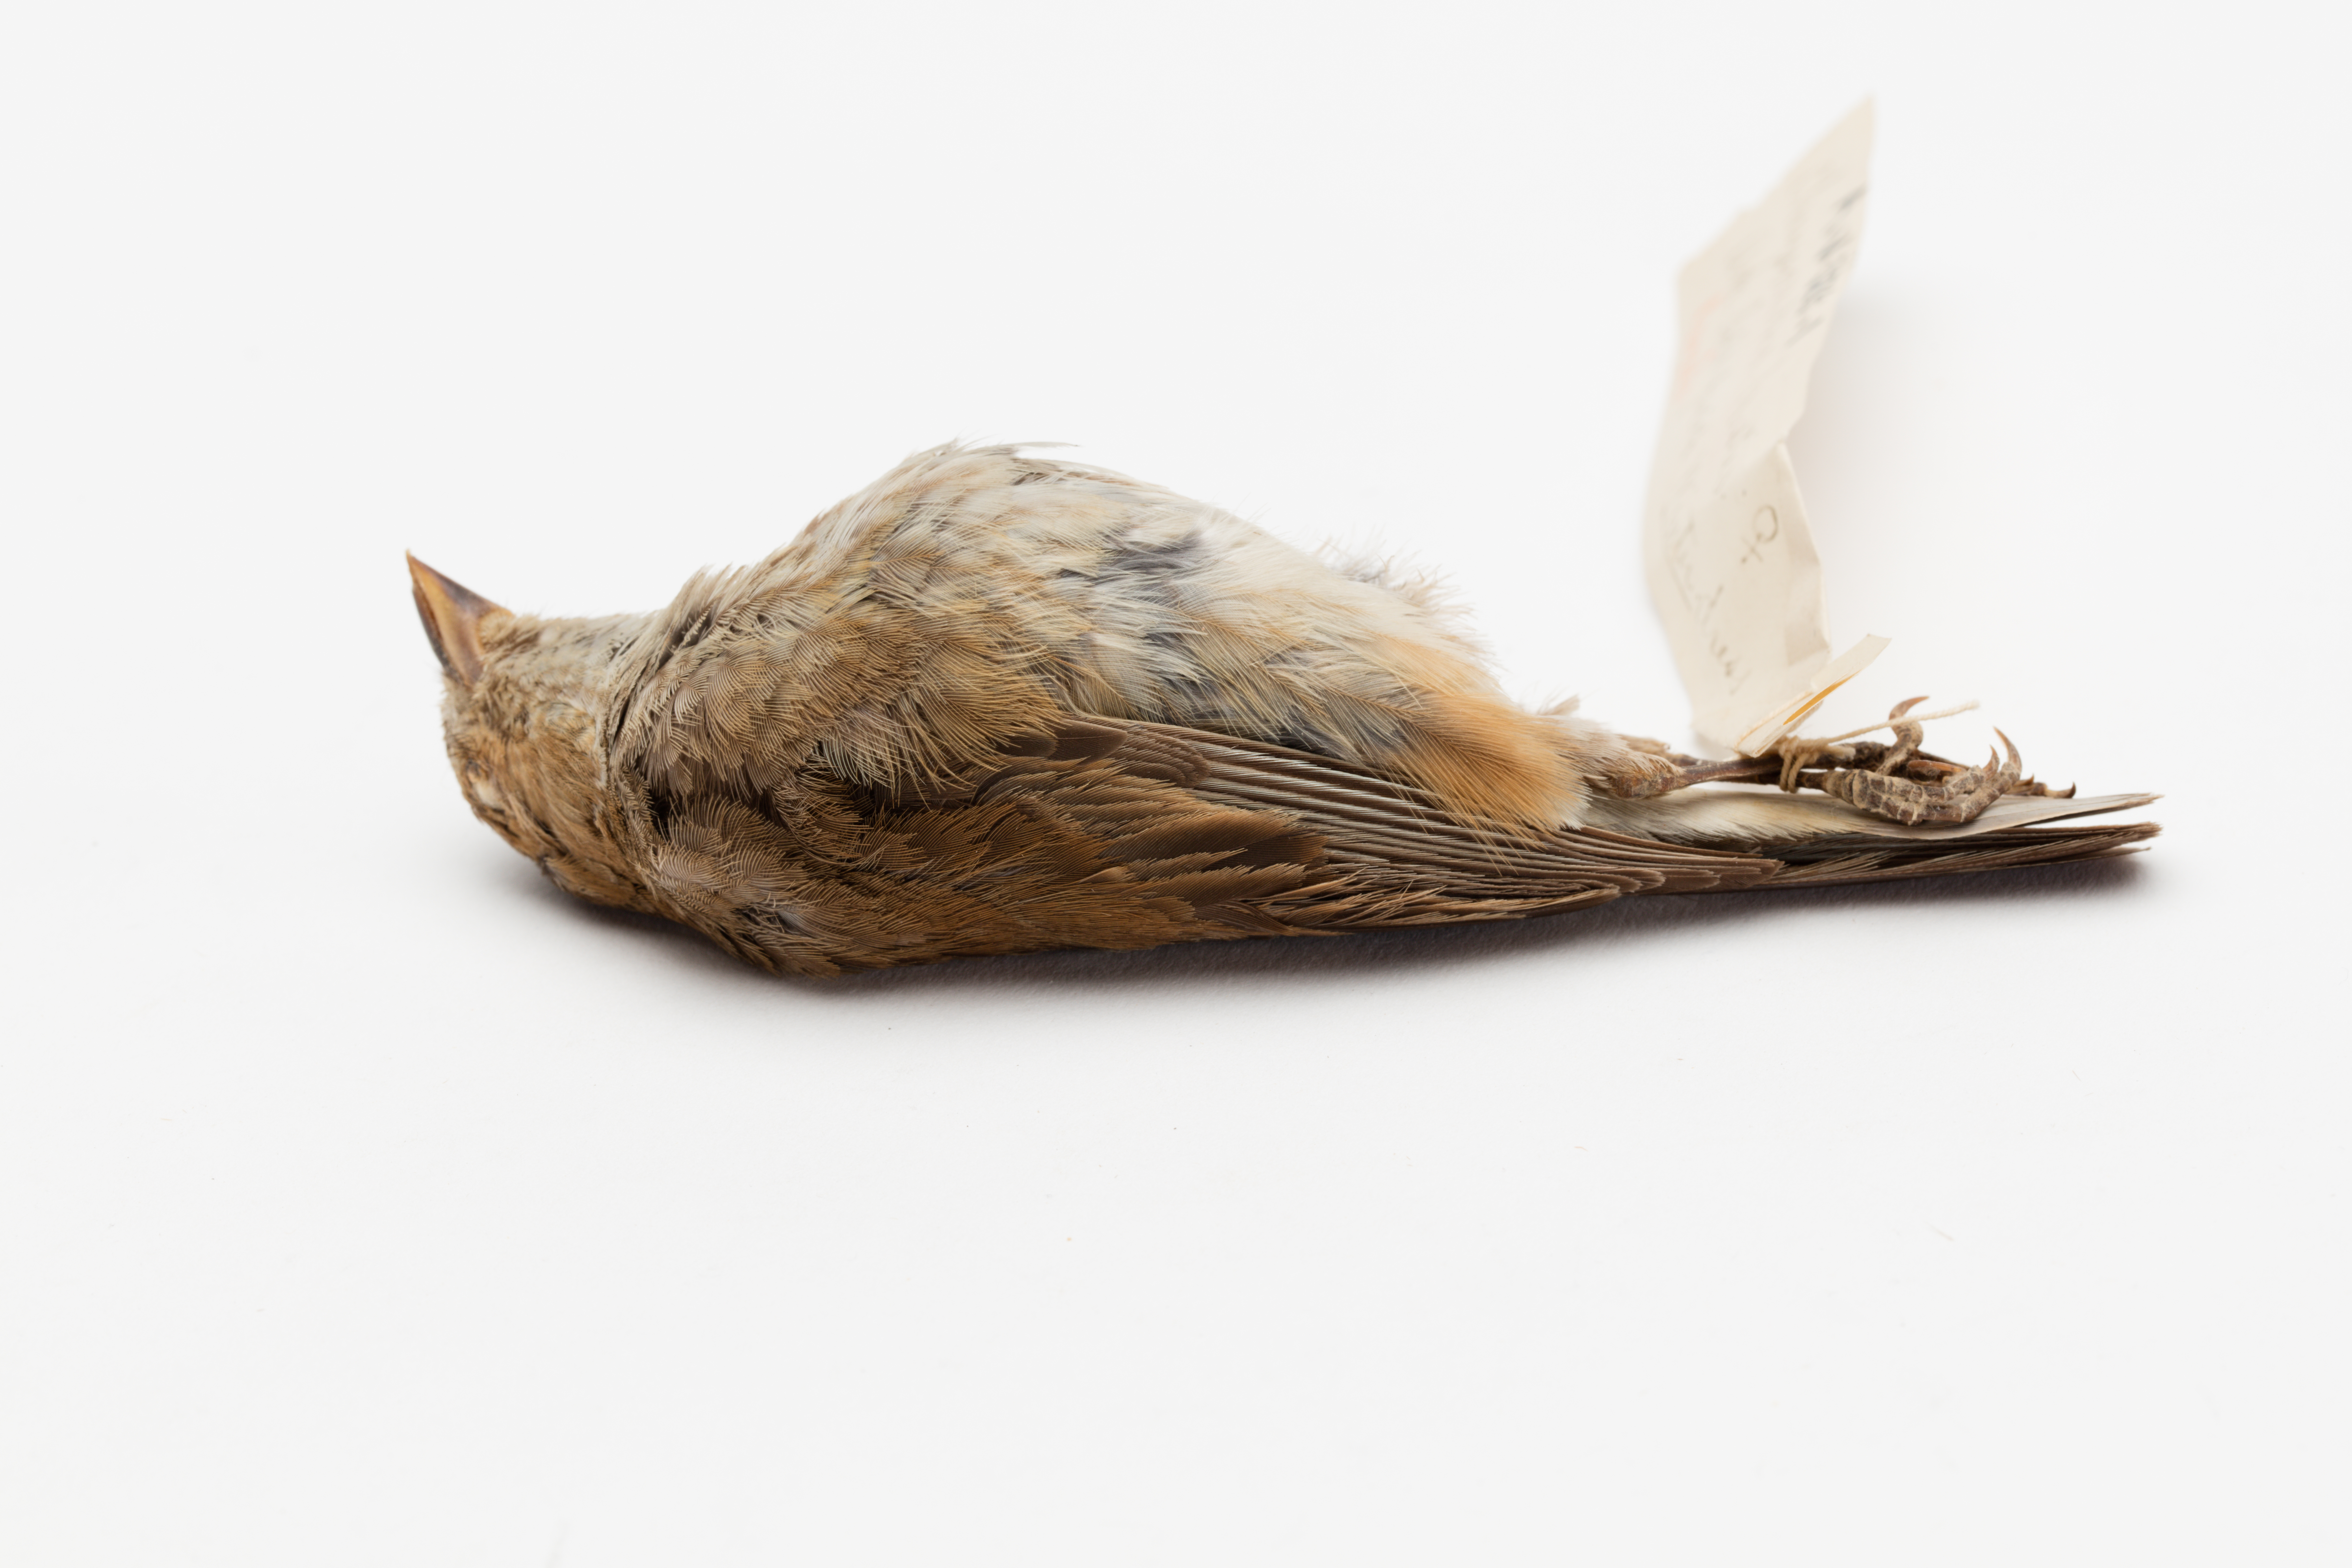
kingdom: Animalia
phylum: Chordata
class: Aves
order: Passeriformes
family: Fringillidae
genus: Spinus
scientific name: Spinus tristis
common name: American goldfinch
